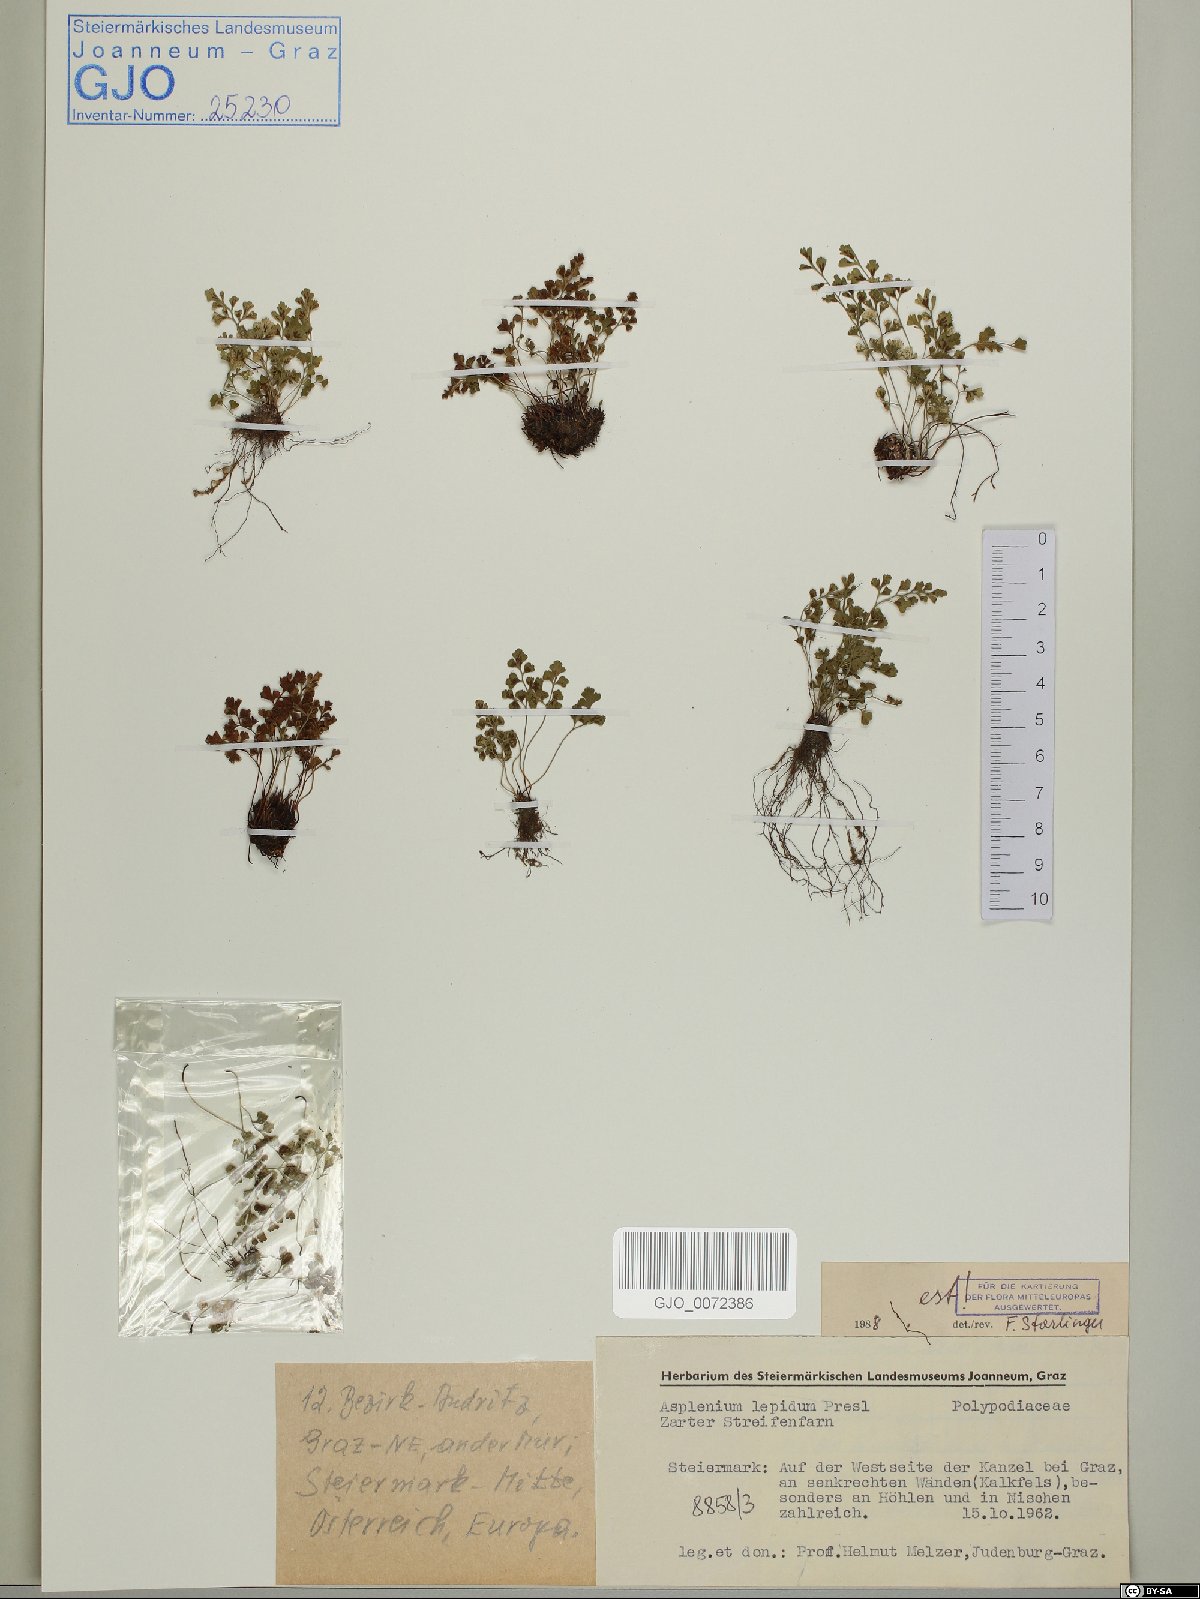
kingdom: Plantae
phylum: Tracheophyta
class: Polypodiopsida
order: Polypodiales
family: Aspleniaceae
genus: Asplenium
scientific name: Asplenium lepidum
